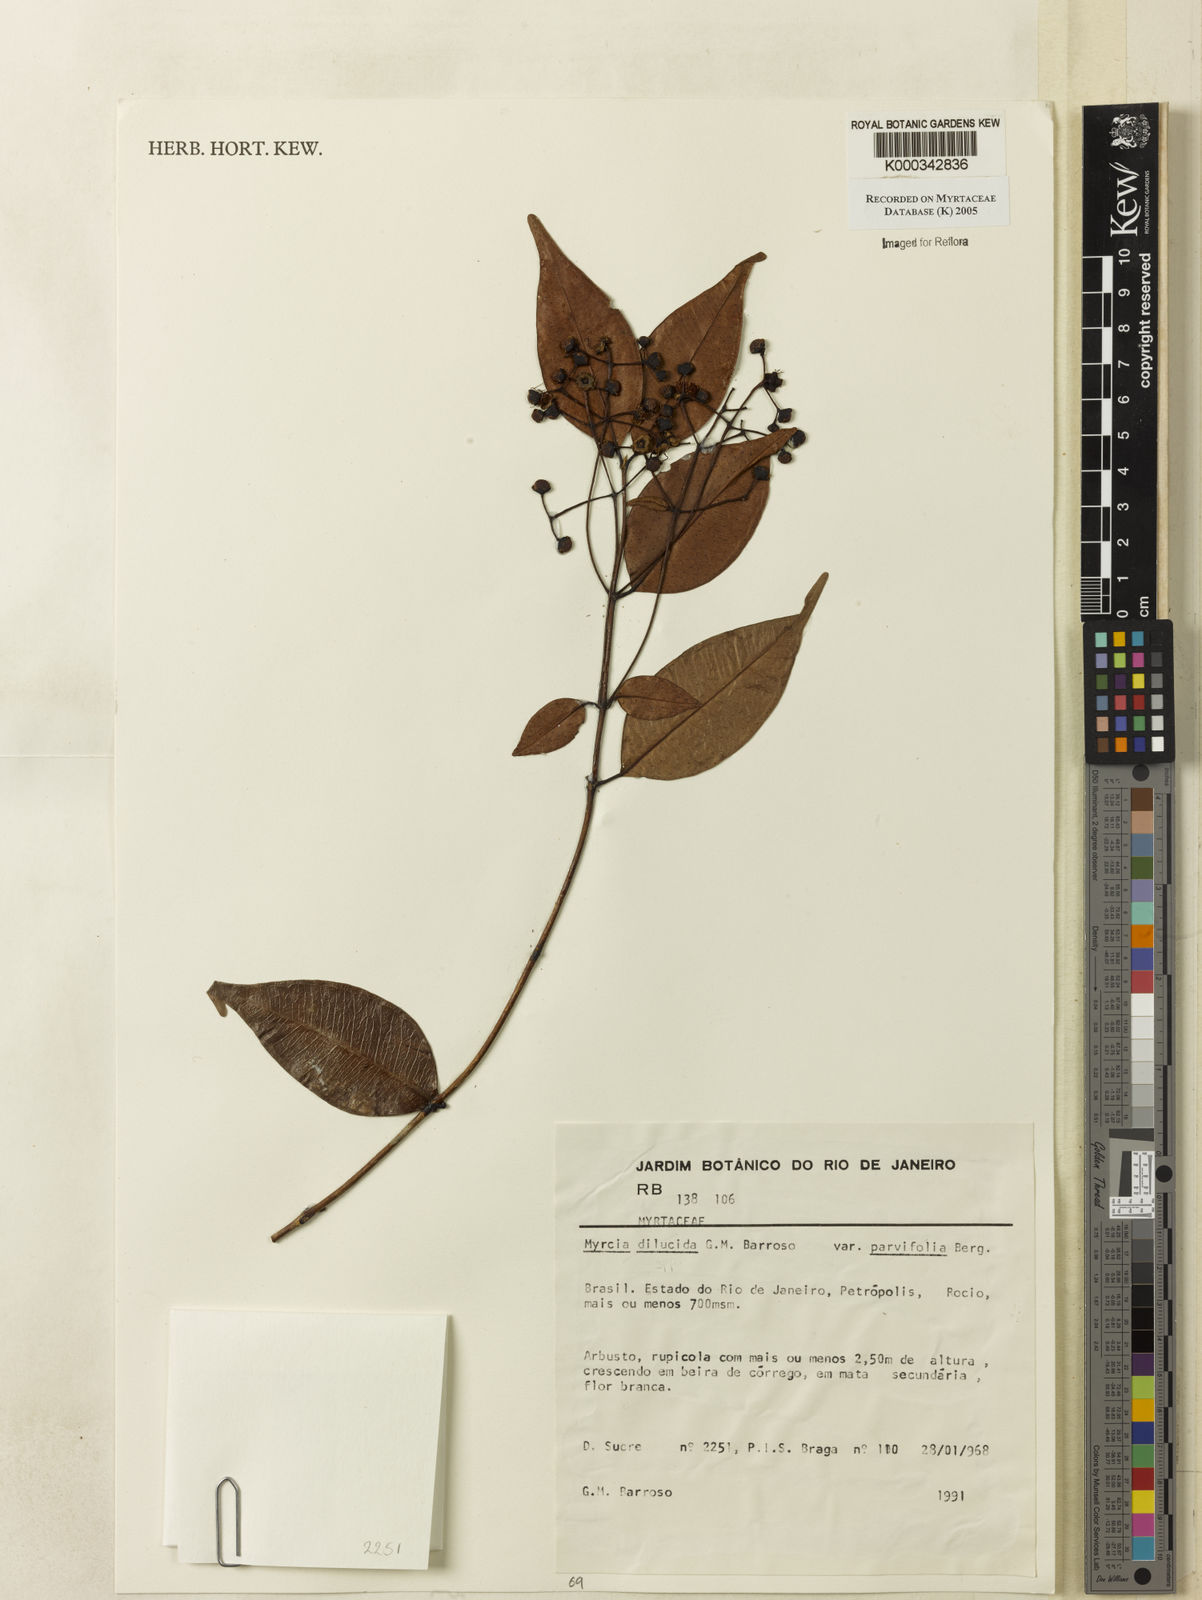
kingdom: Plantae
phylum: Tracheophyta
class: Magnoliopsida
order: Myrtales
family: Myrtaceae
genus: Myrcia
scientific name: Myrcia aethusa
